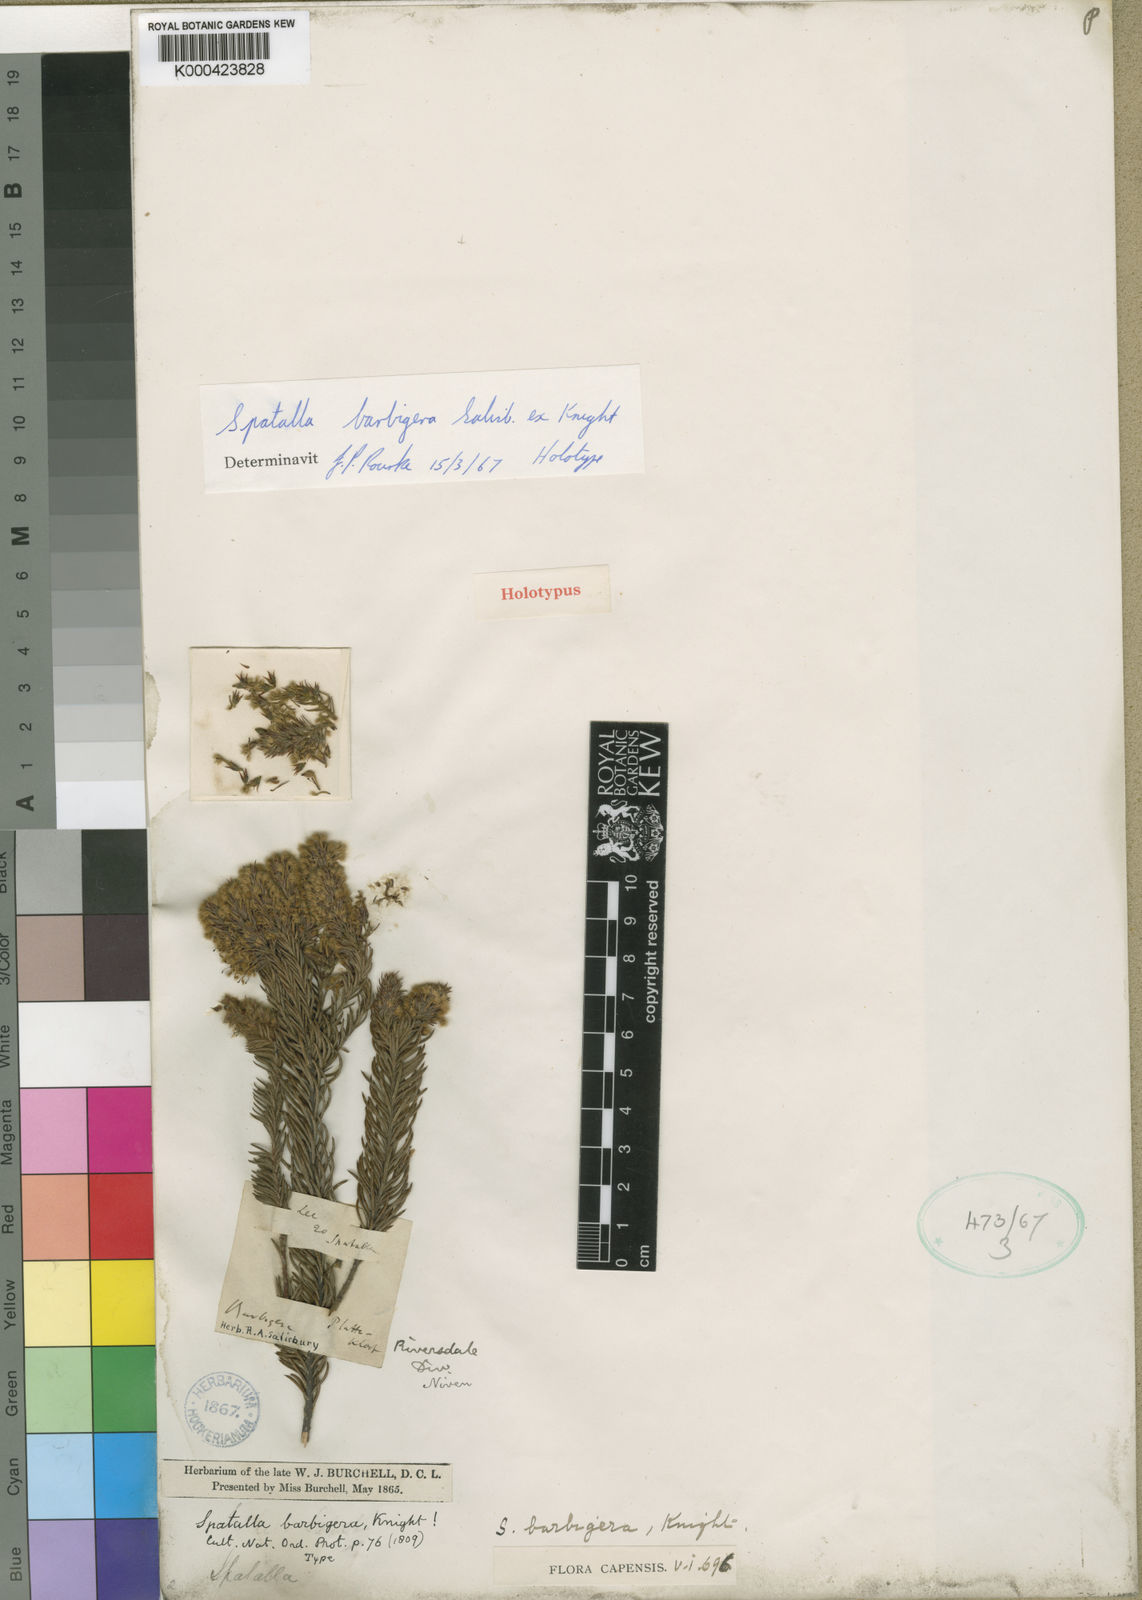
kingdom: Plantae
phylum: Tracheophyta
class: Magnoliopsida
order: Proteales
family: Proteaceae
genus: Spatalla
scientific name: Spatalla barbigera
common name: Fine-leaf spoon
